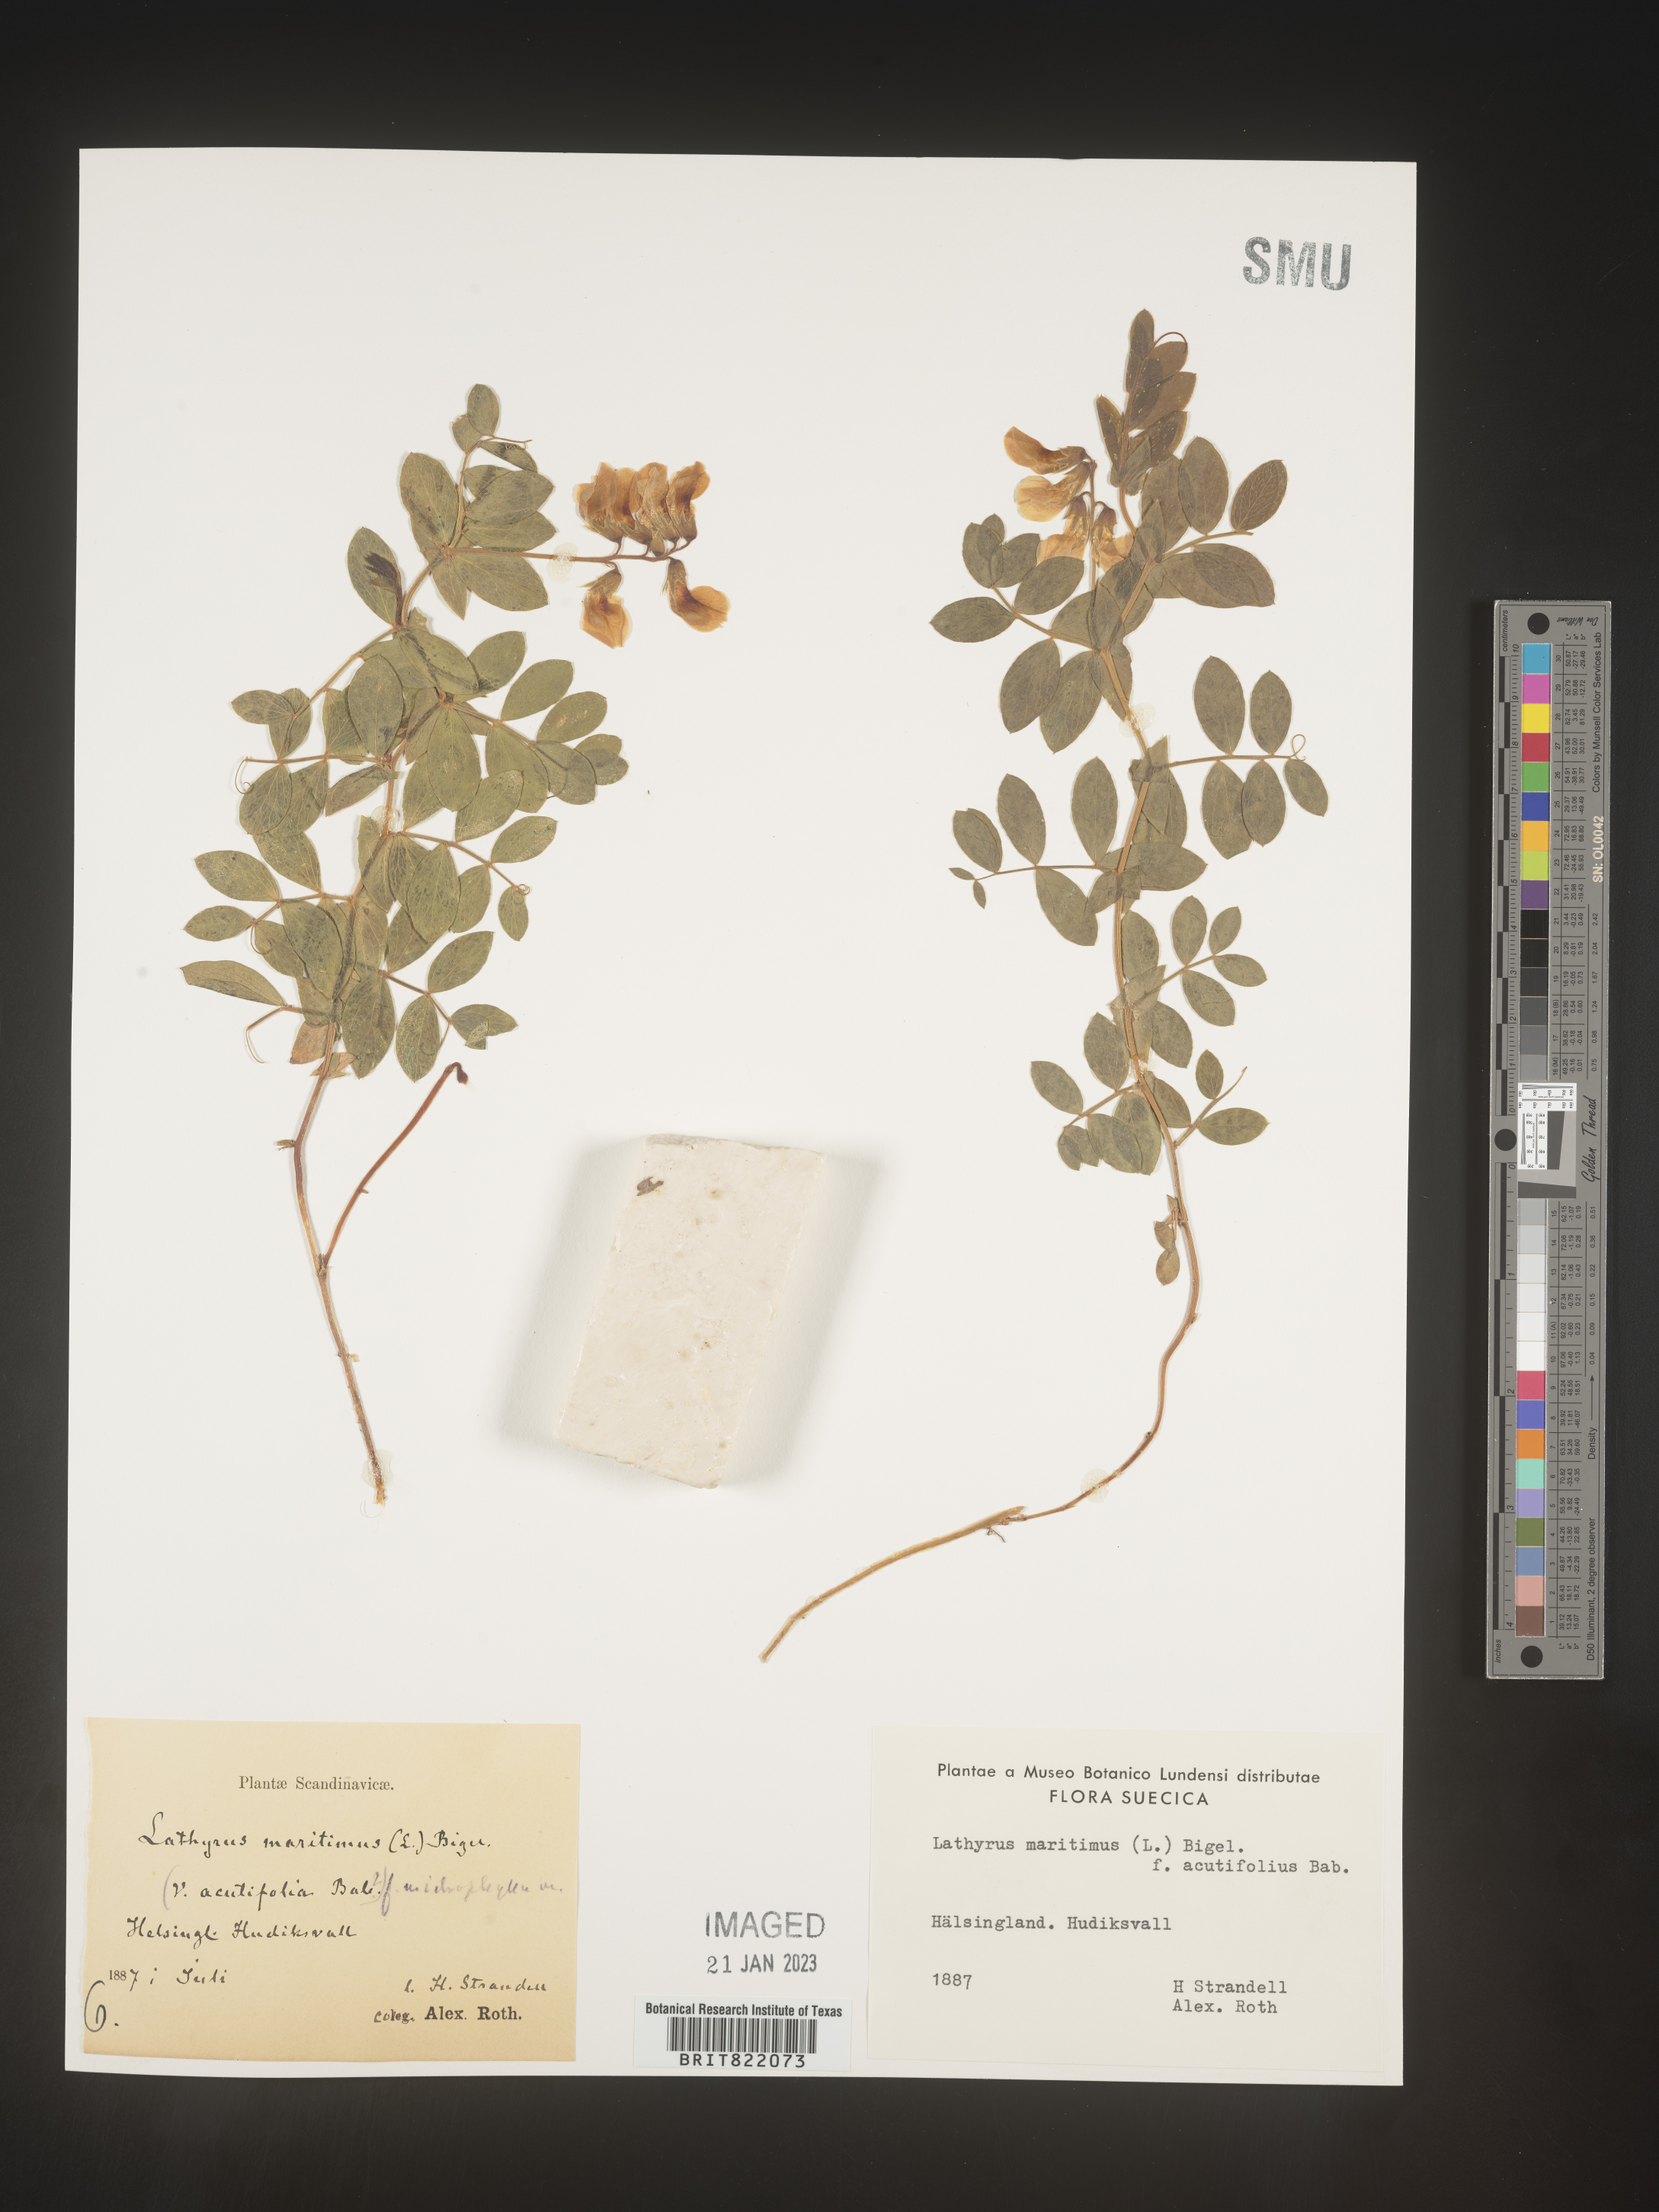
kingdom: Plantae
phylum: Tracheophyta
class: Magnoliopsida
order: Fabales
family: Fabaceae
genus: Lathyrus
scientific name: Lathyrus
